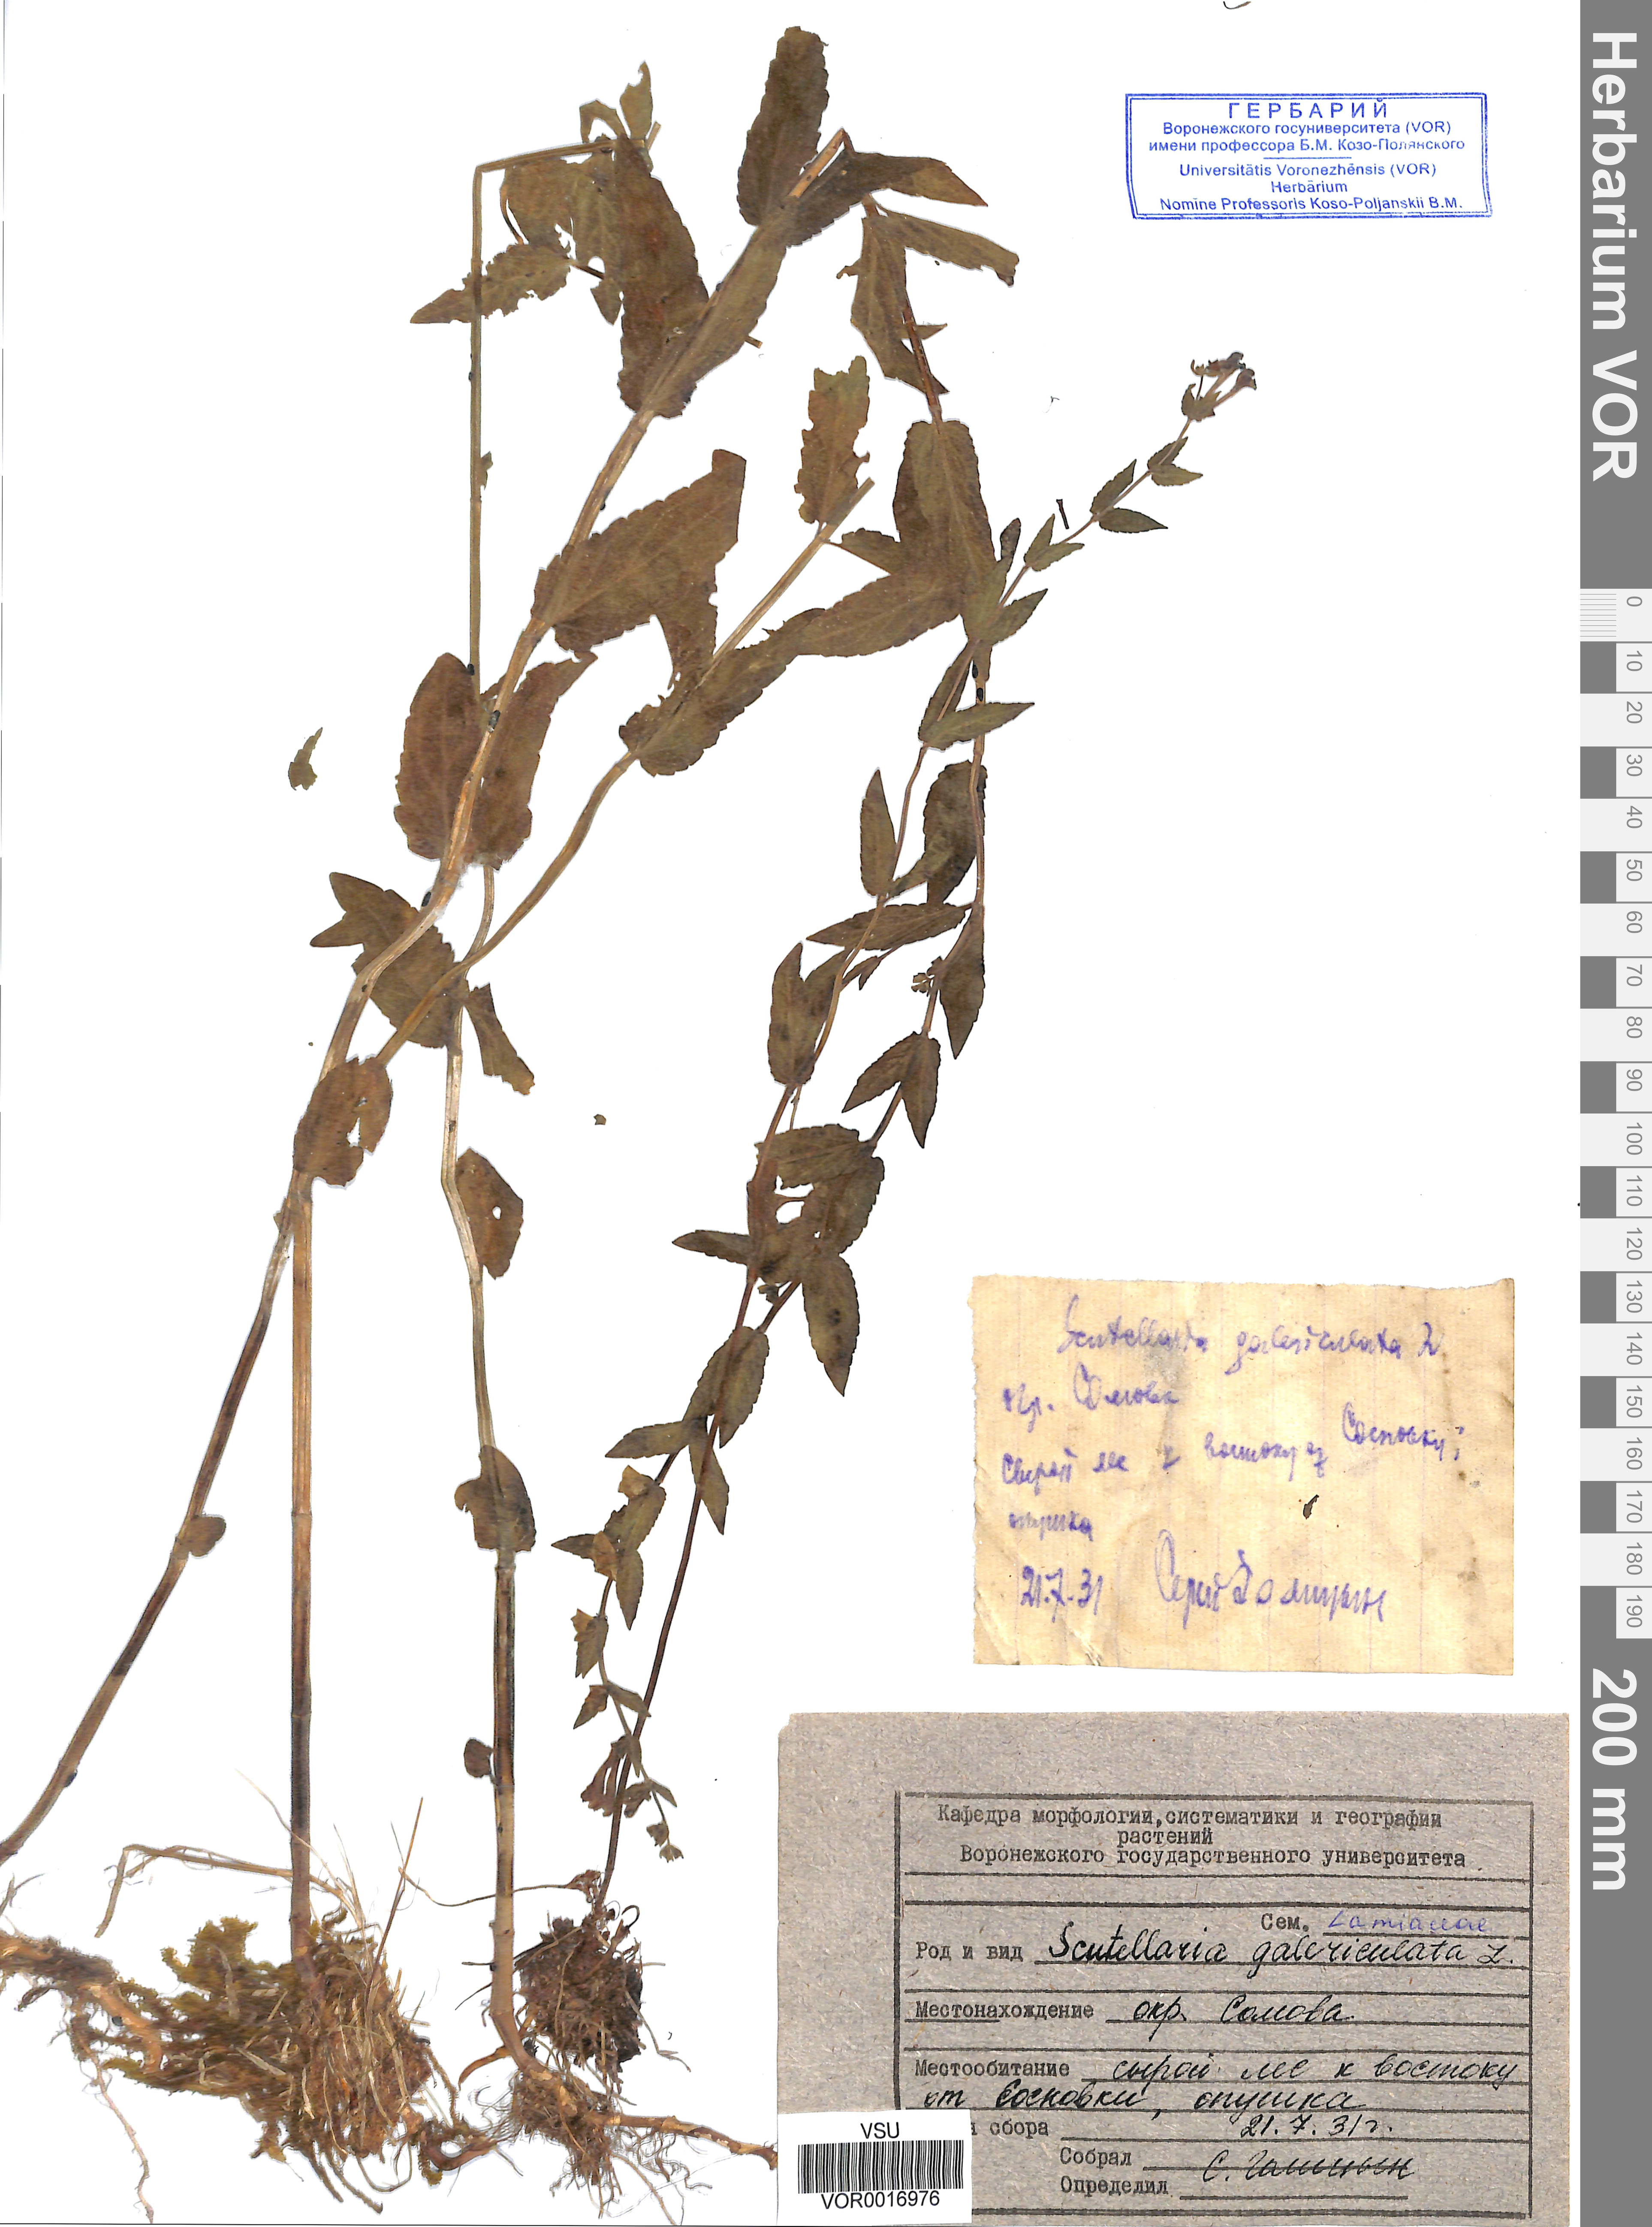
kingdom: Plantae
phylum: Tracheophyta
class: Magnoliopsida
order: Lamiales
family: Lamiaceae
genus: Scutellaria
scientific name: Scutellaria galericulata
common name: Skullcap
